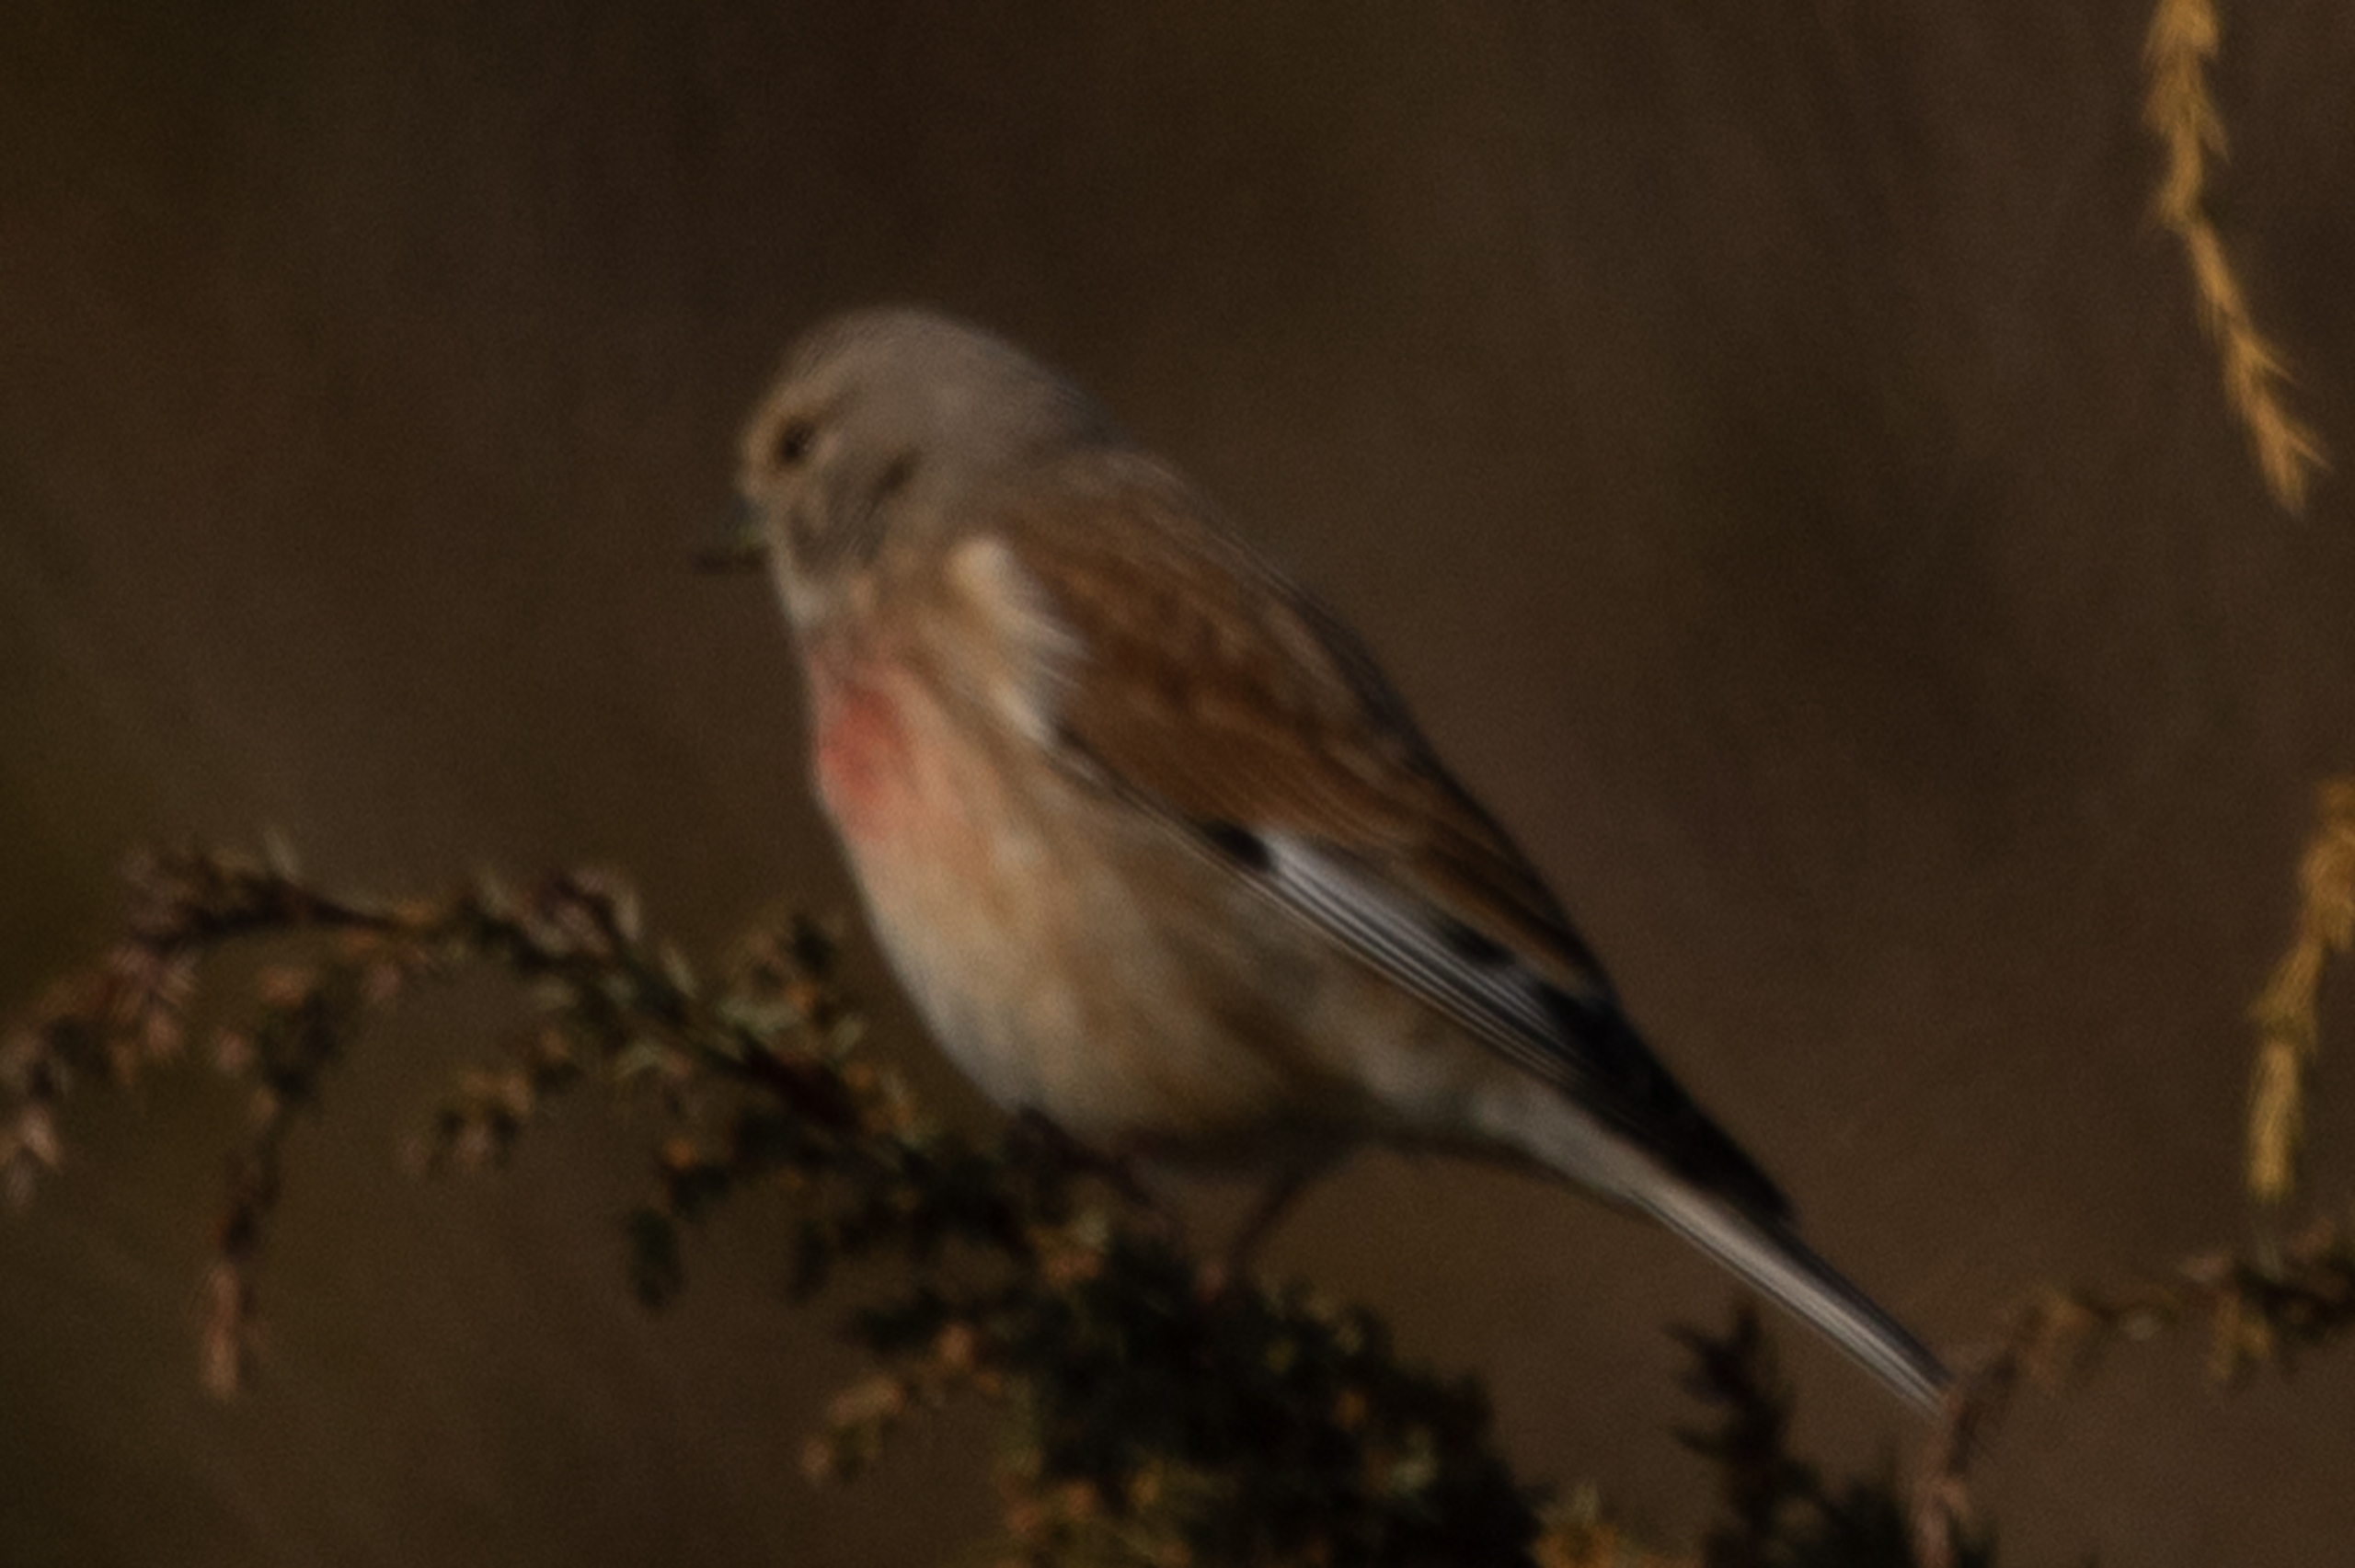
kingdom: Animalia
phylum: Chordata
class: Aves
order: Passeriformes
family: Fringillidae
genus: Linaria
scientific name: Linaria cannabina
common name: Tornirisk
